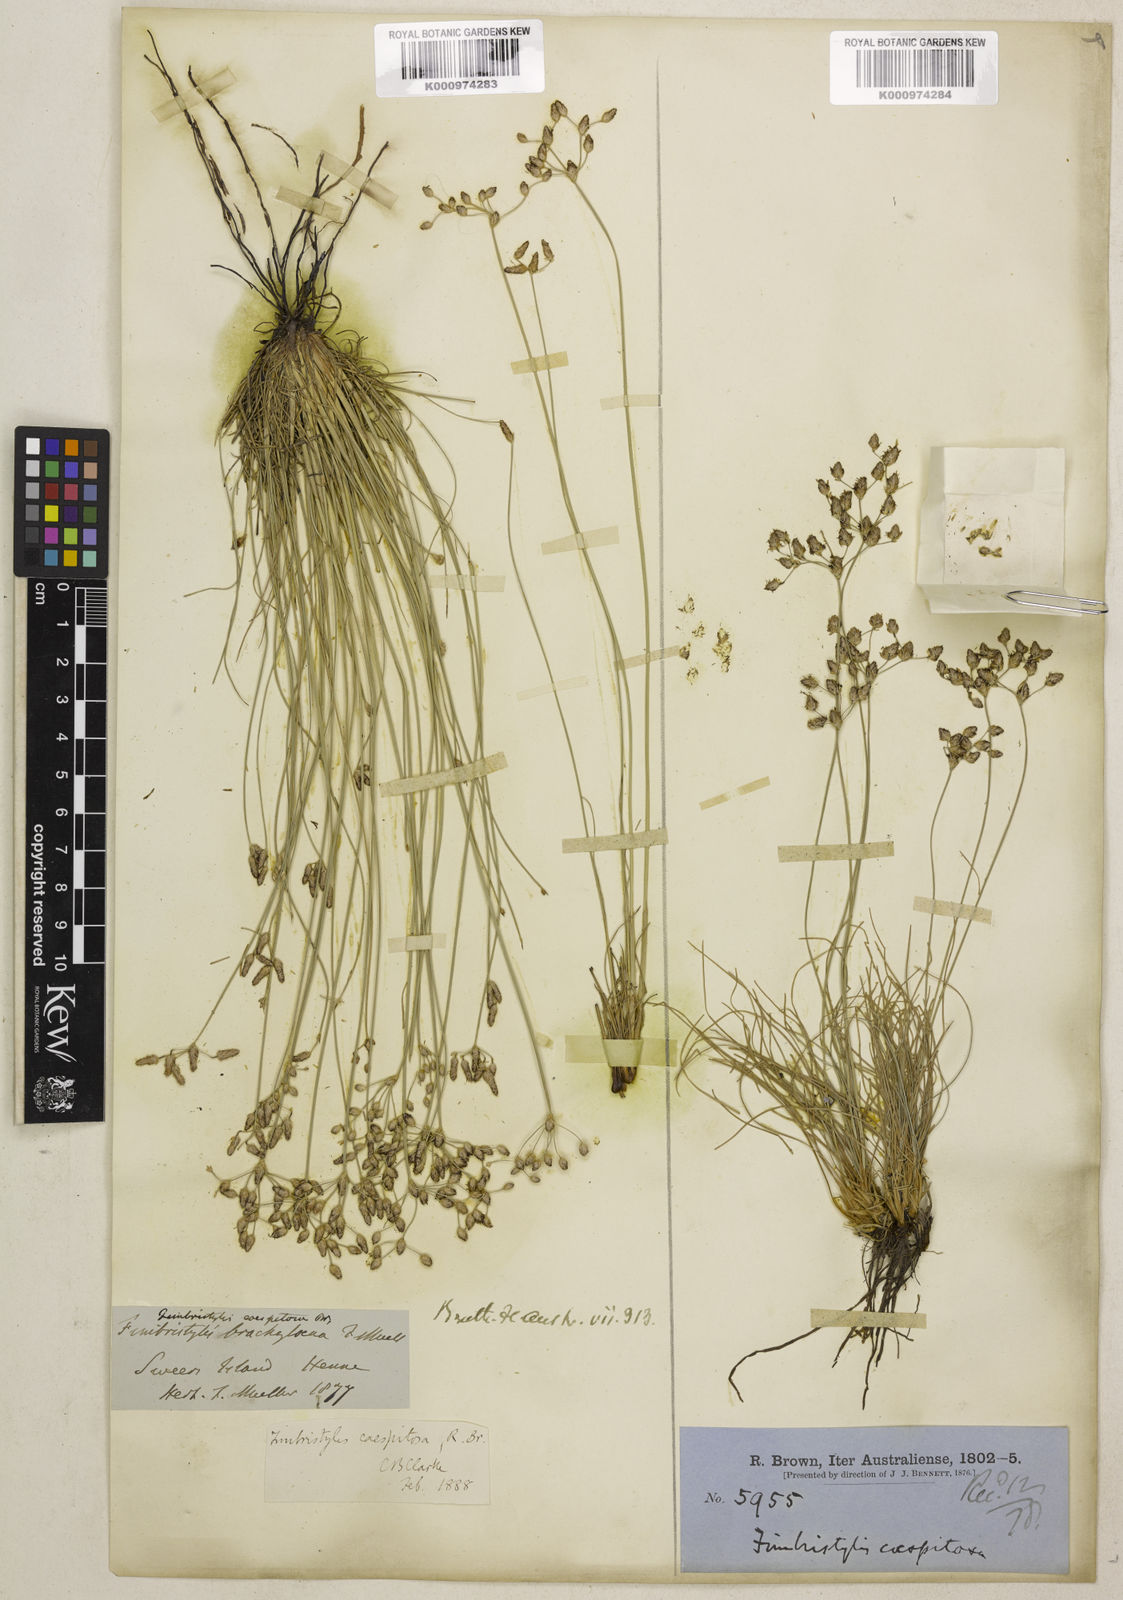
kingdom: Plantae
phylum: Tracheophyta
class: Liliopsida
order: Poales
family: Cyperaceae
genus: Fimbristylis
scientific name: Fimbristylis caespitosa
